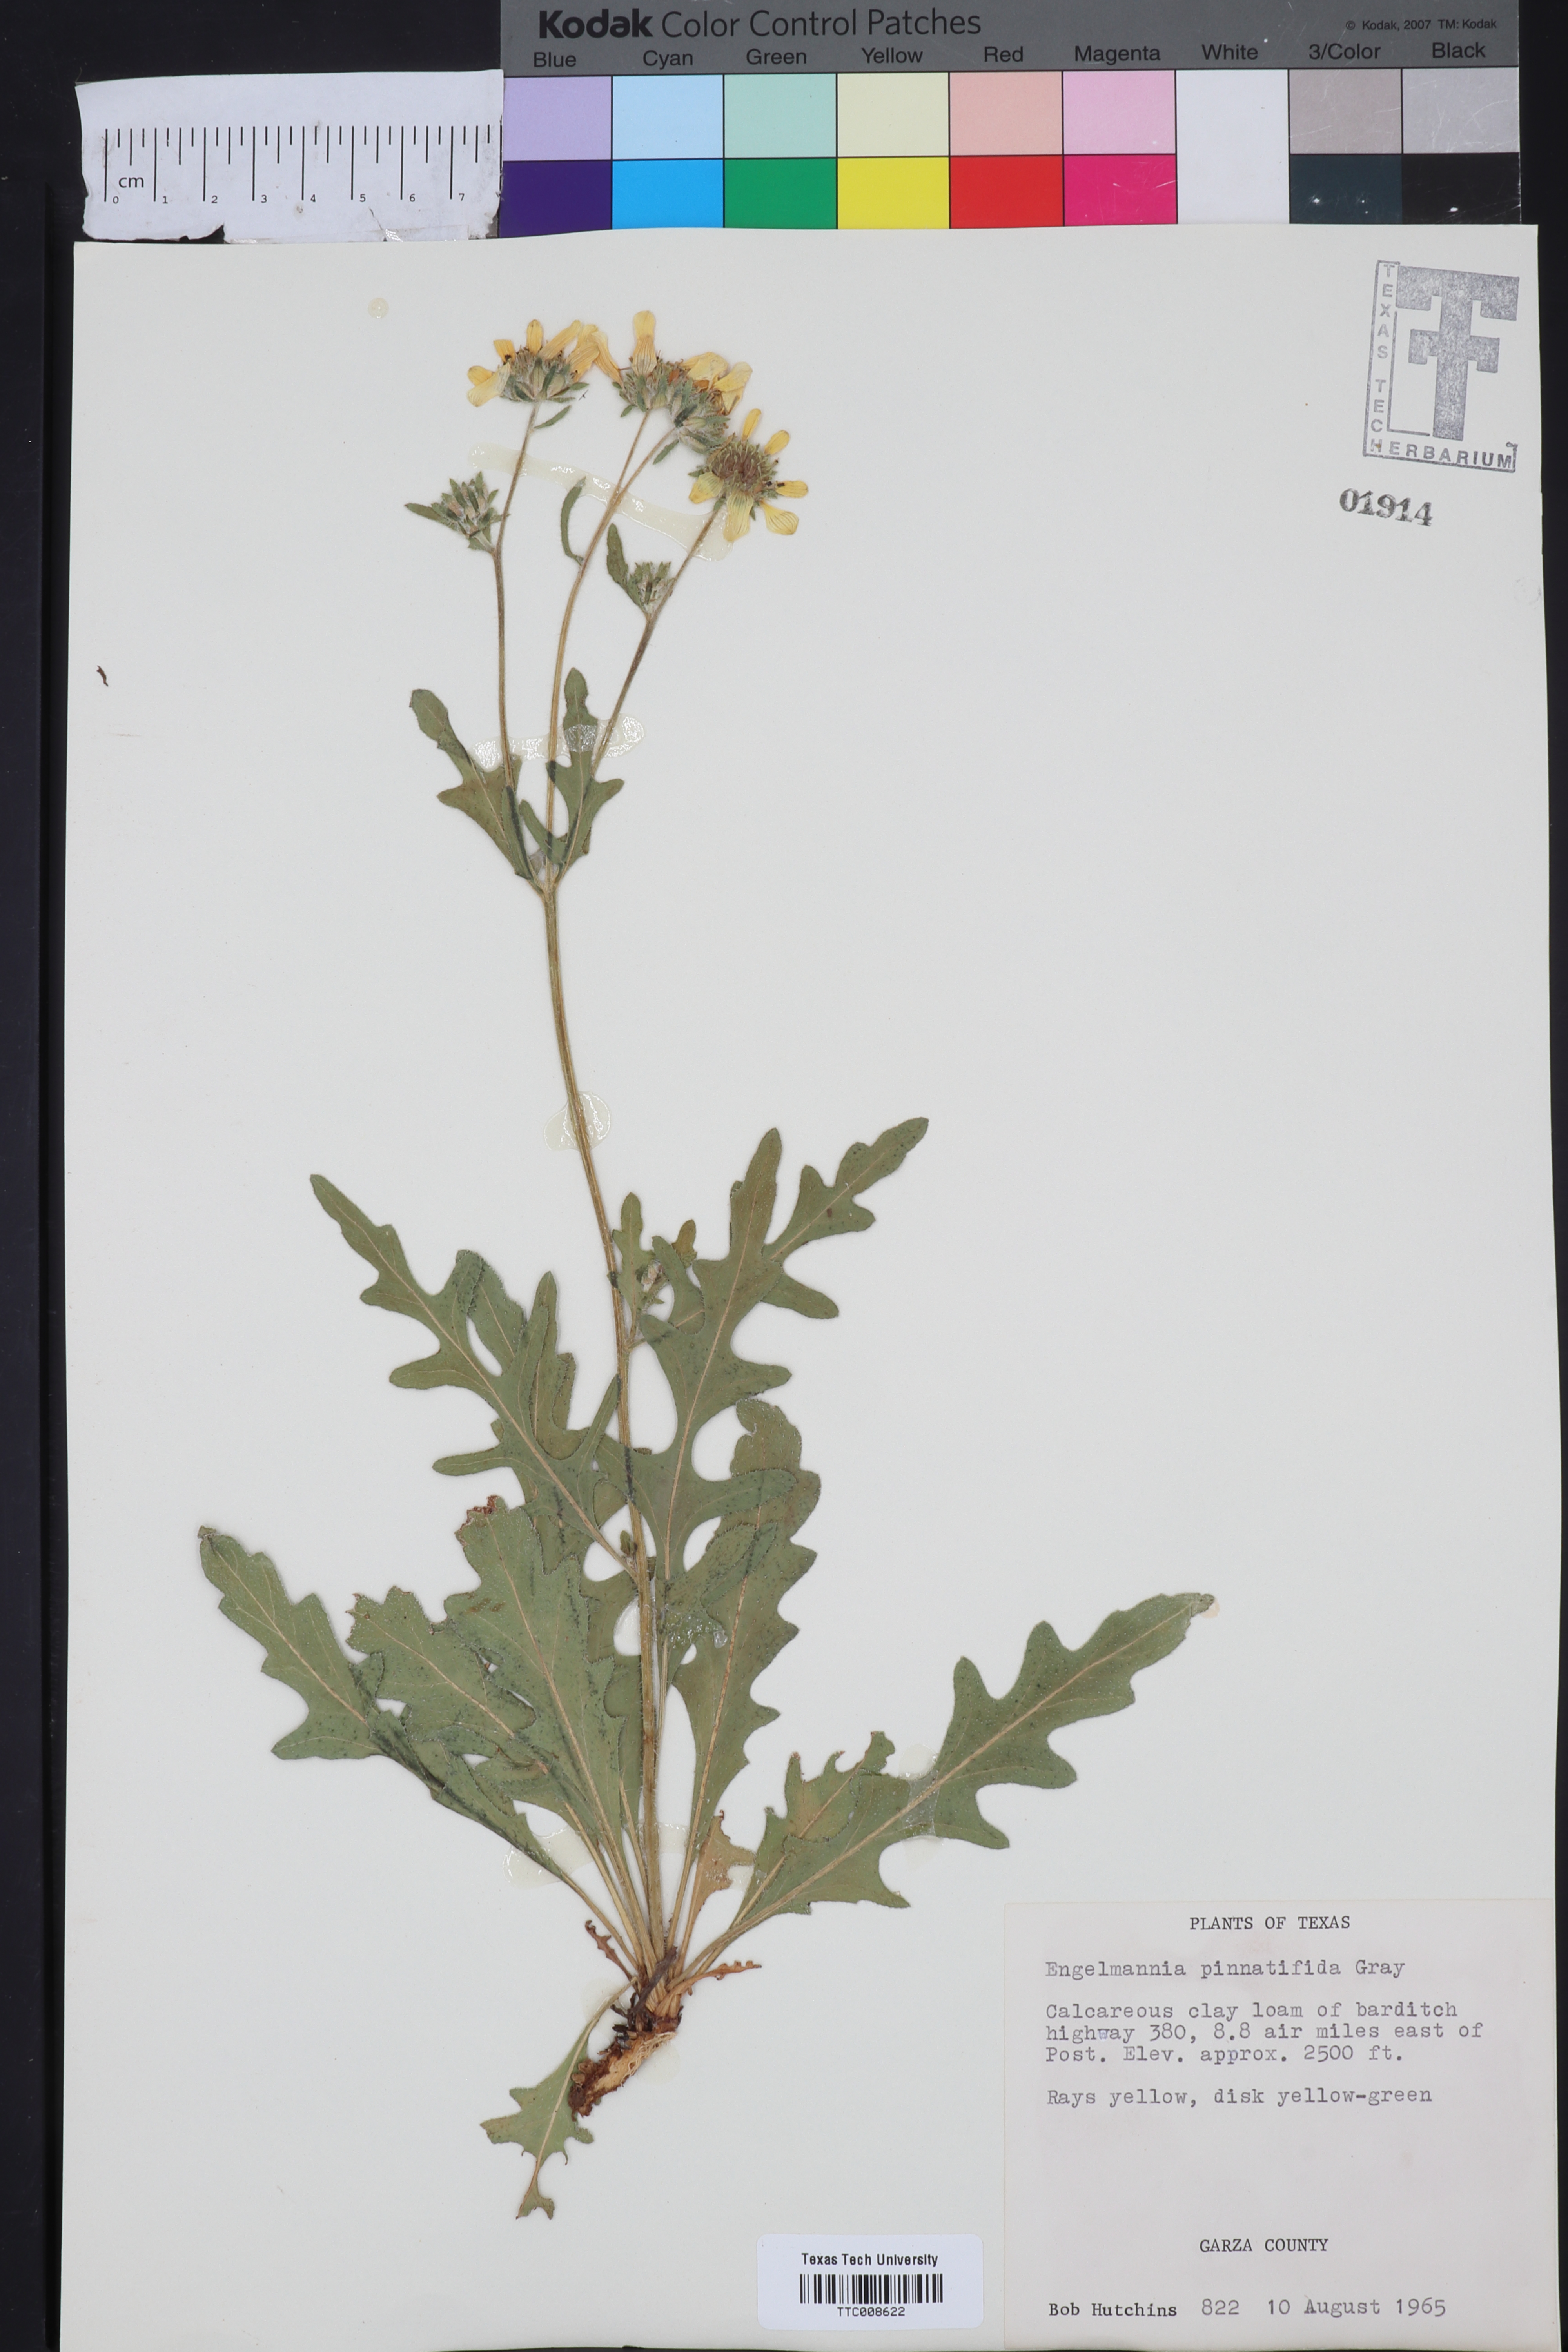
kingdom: Plantae
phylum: Tracheophyta
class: Magnoliopsida
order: Asterales
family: Asteraceae
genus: Engelmannia
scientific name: Engelmannia peristenia
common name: Engelmann's daisy
